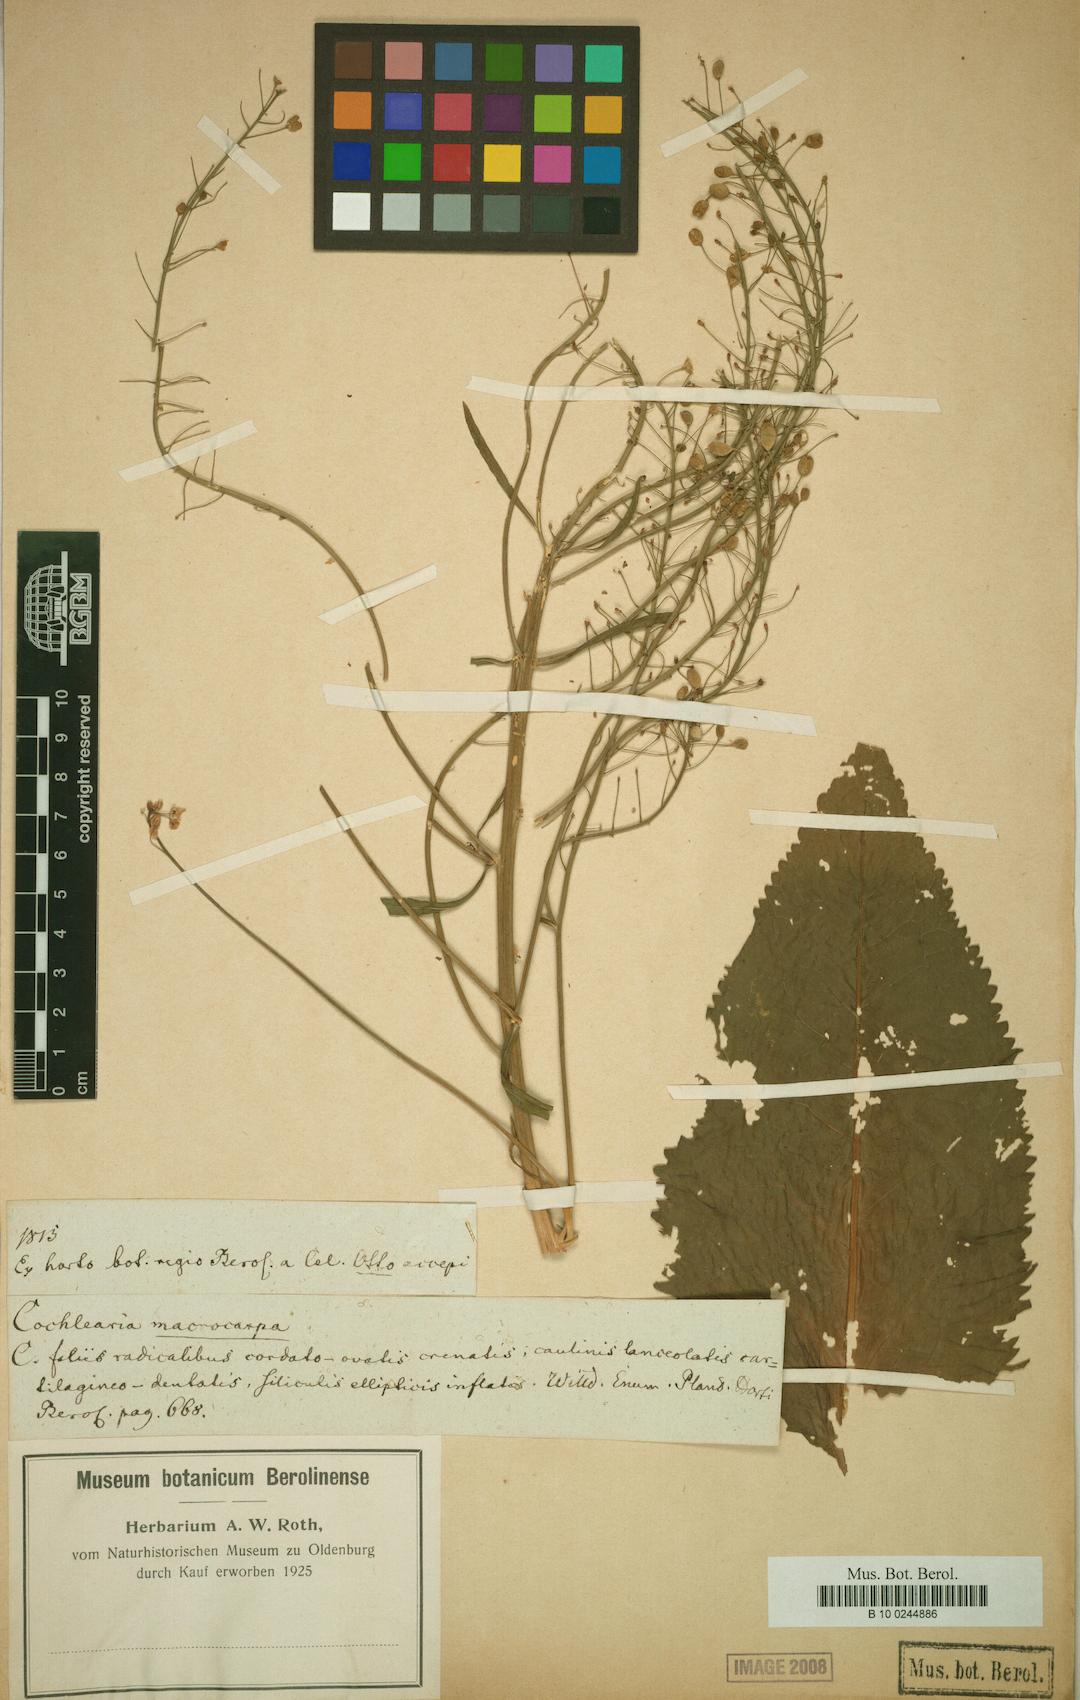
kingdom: Plantae
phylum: Tracheophyta
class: Magnoliopsida
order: Brassicales
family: Brassicaceae
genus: Armoracia
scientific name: Armoracia macrocarpa
